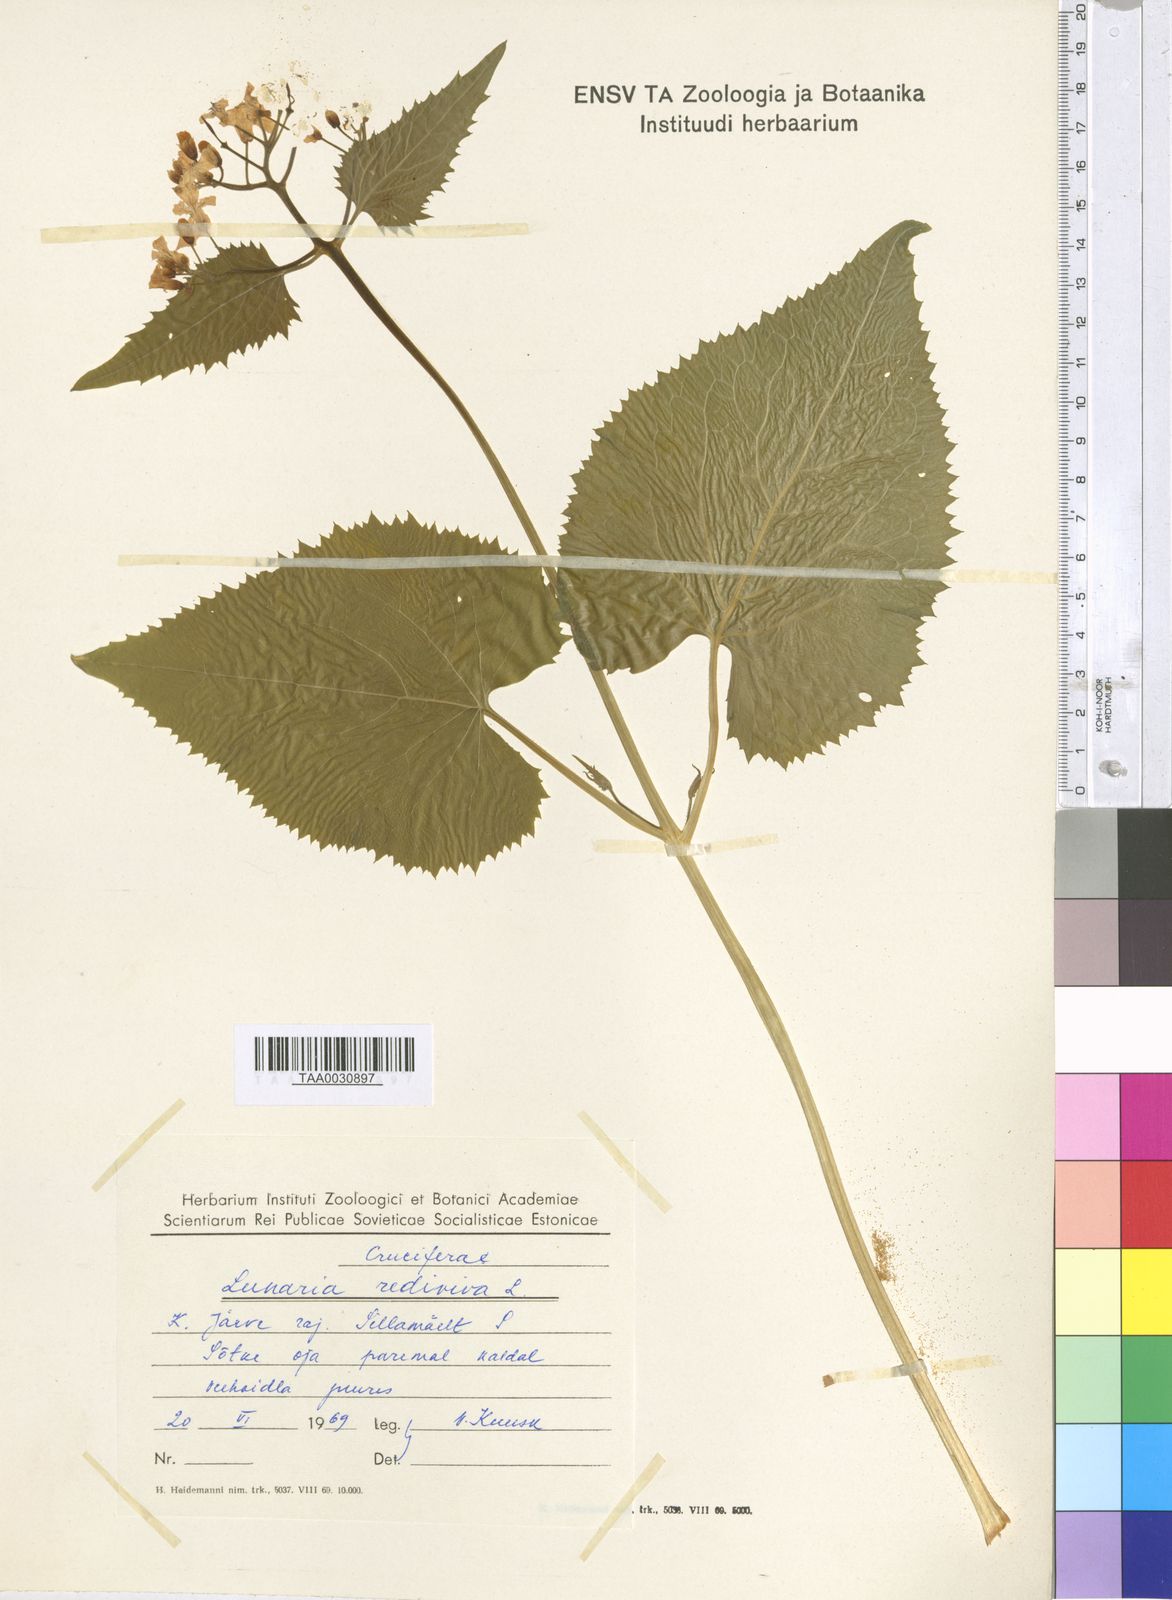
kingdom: Plantae
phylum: Tracheophyta
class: Magnoliopsida
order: Brassicales
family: Brassicaceae
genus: Lunaria
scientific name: Lunaria rediviva
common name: Perennial honesty
